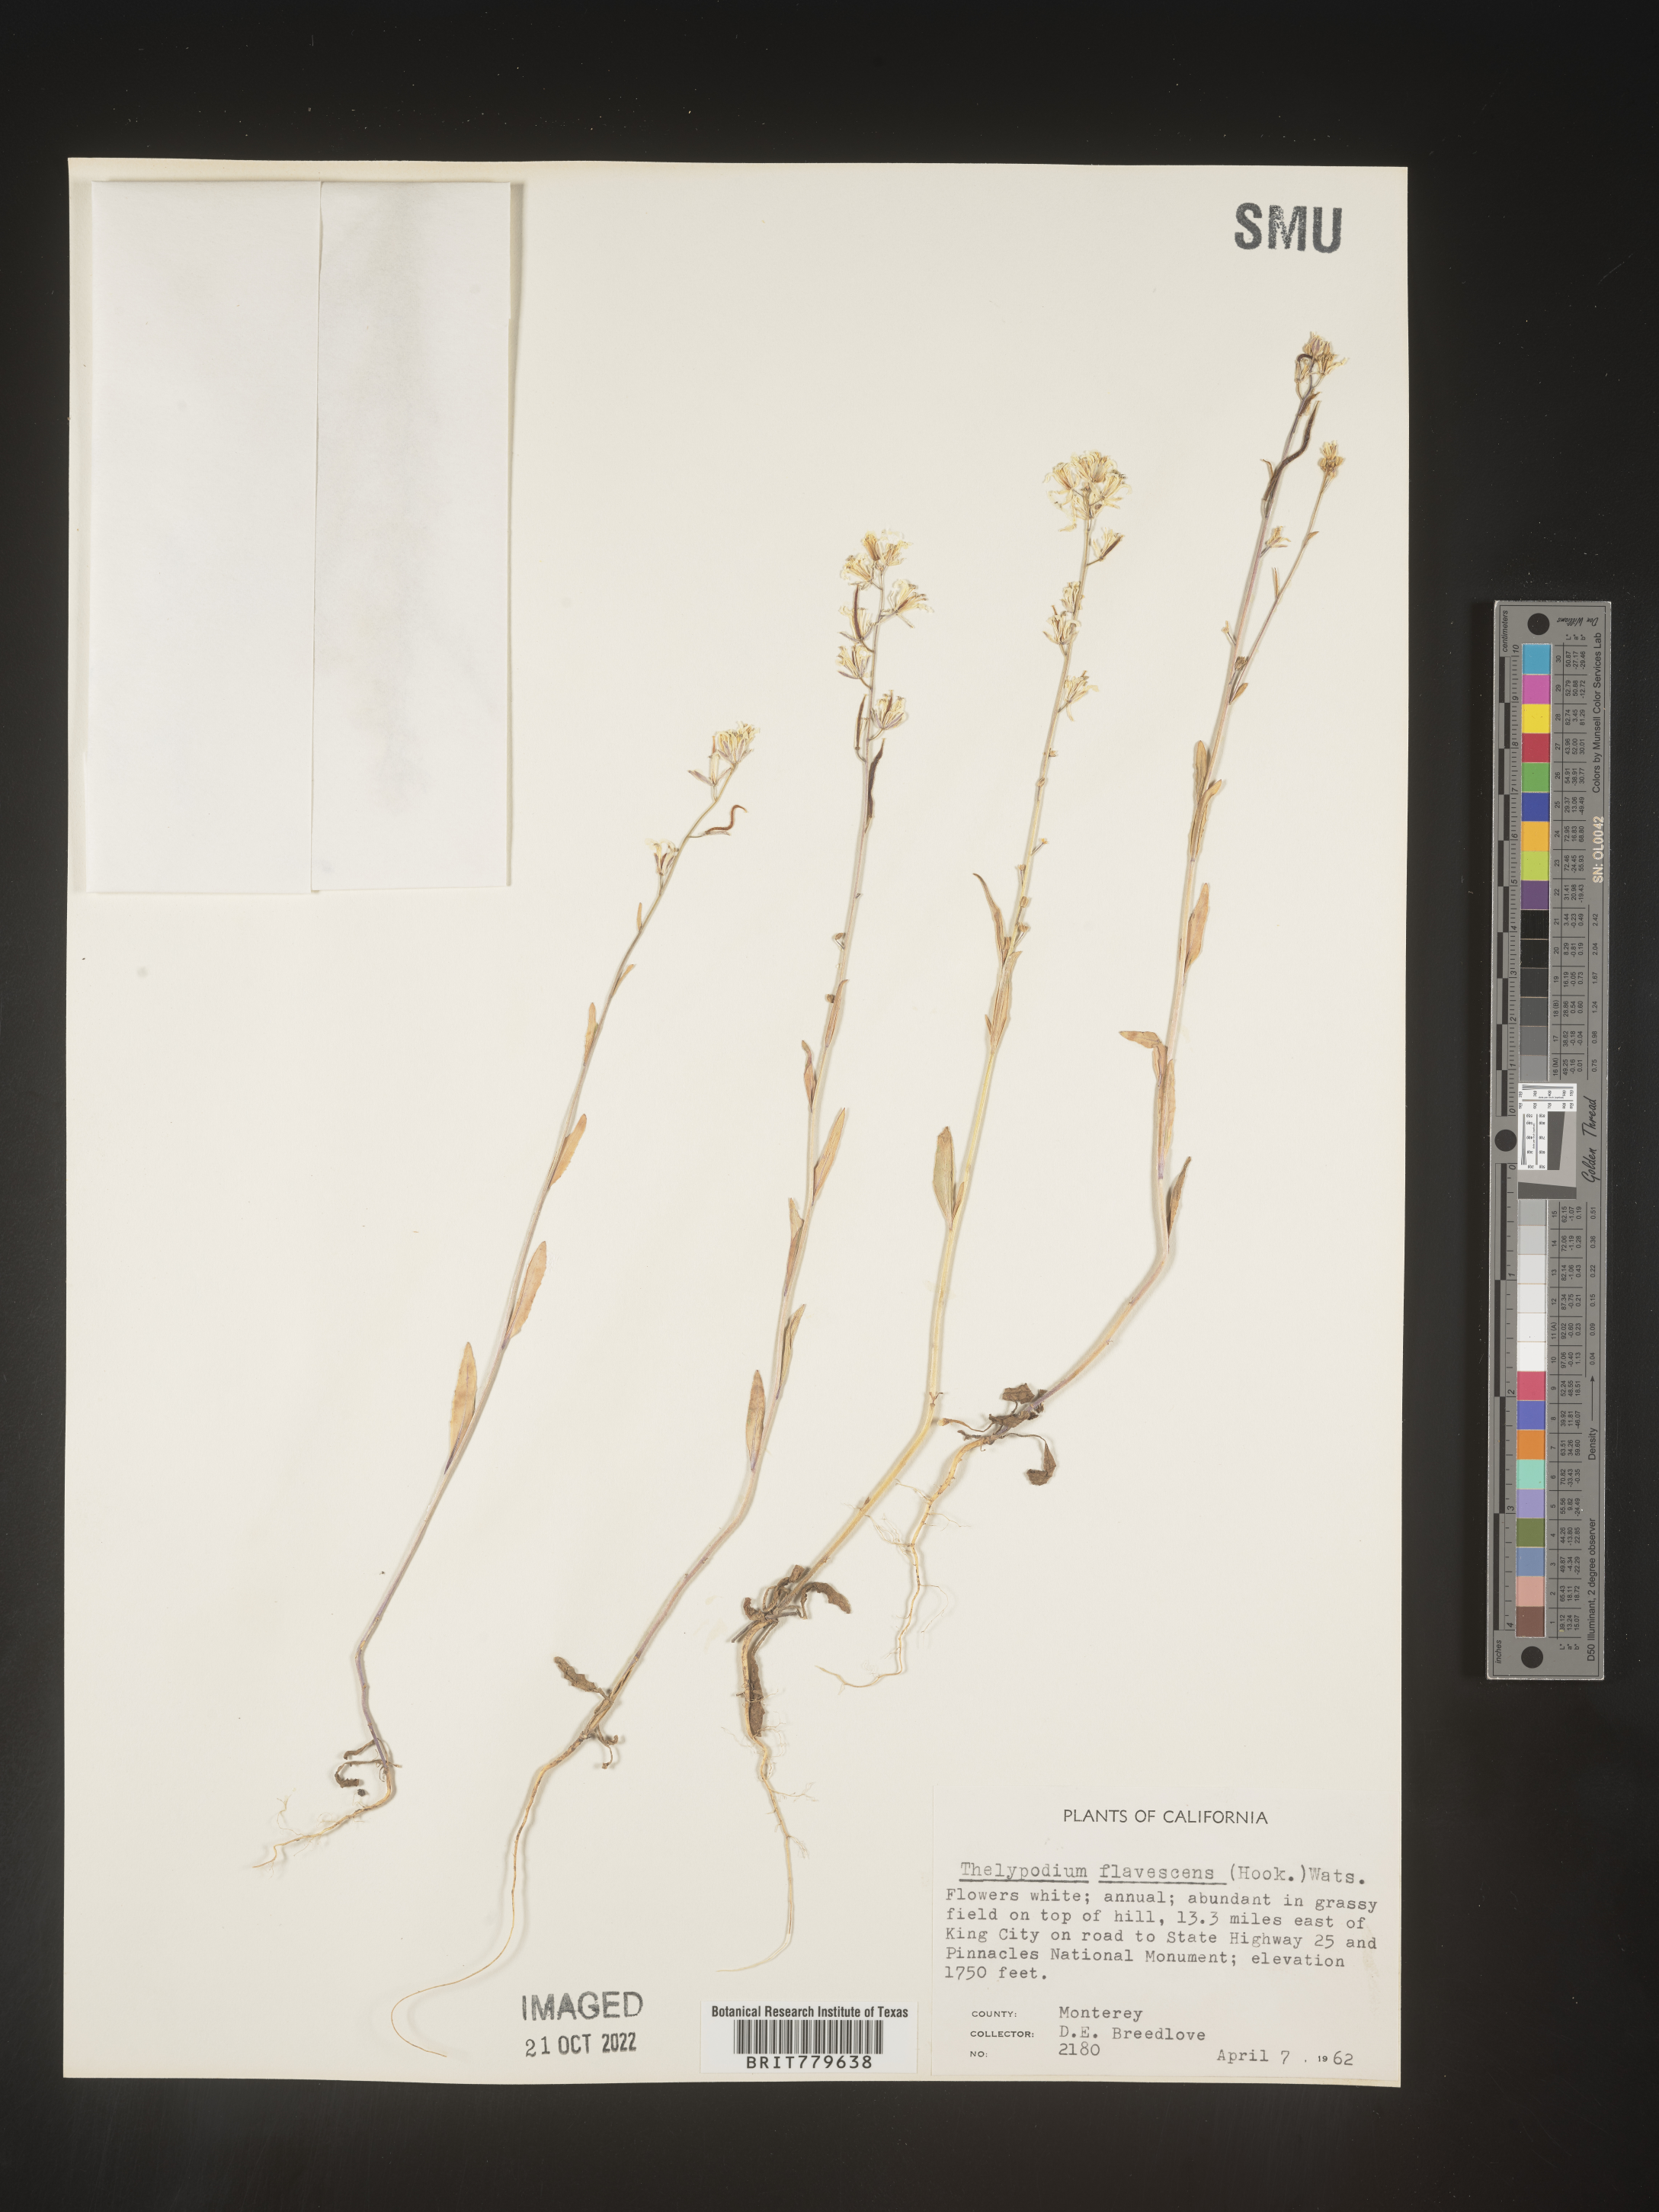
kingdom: Plantae
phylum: Tracheophyta
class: Magnoliopsida
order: Brassicales
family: Brassicaceae
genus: Thelypodium
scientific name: Thelypodium
